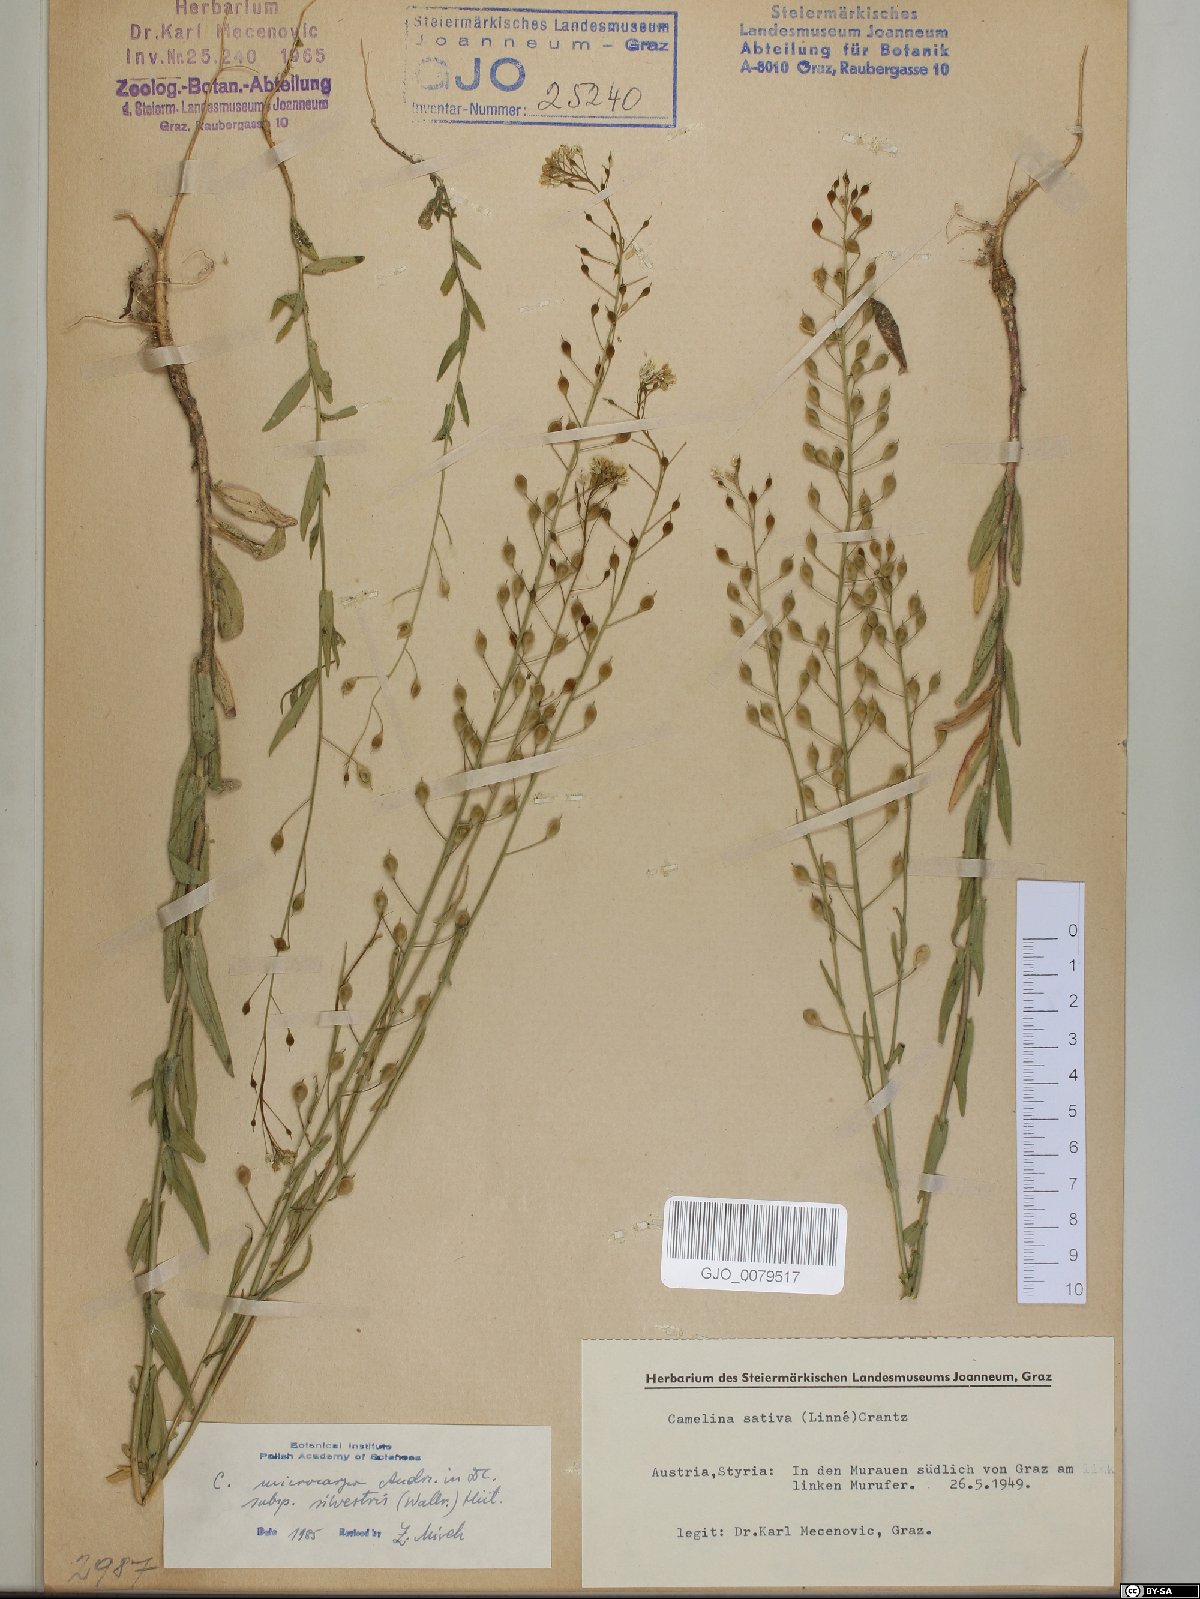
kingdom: Plantae
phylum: Tracheophyta
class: Magnoliopsida
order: Brassicales
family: Brassicaceae
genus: Camelina
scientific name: Camelina microcarpa
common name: Lesser gold-of-pleasure
